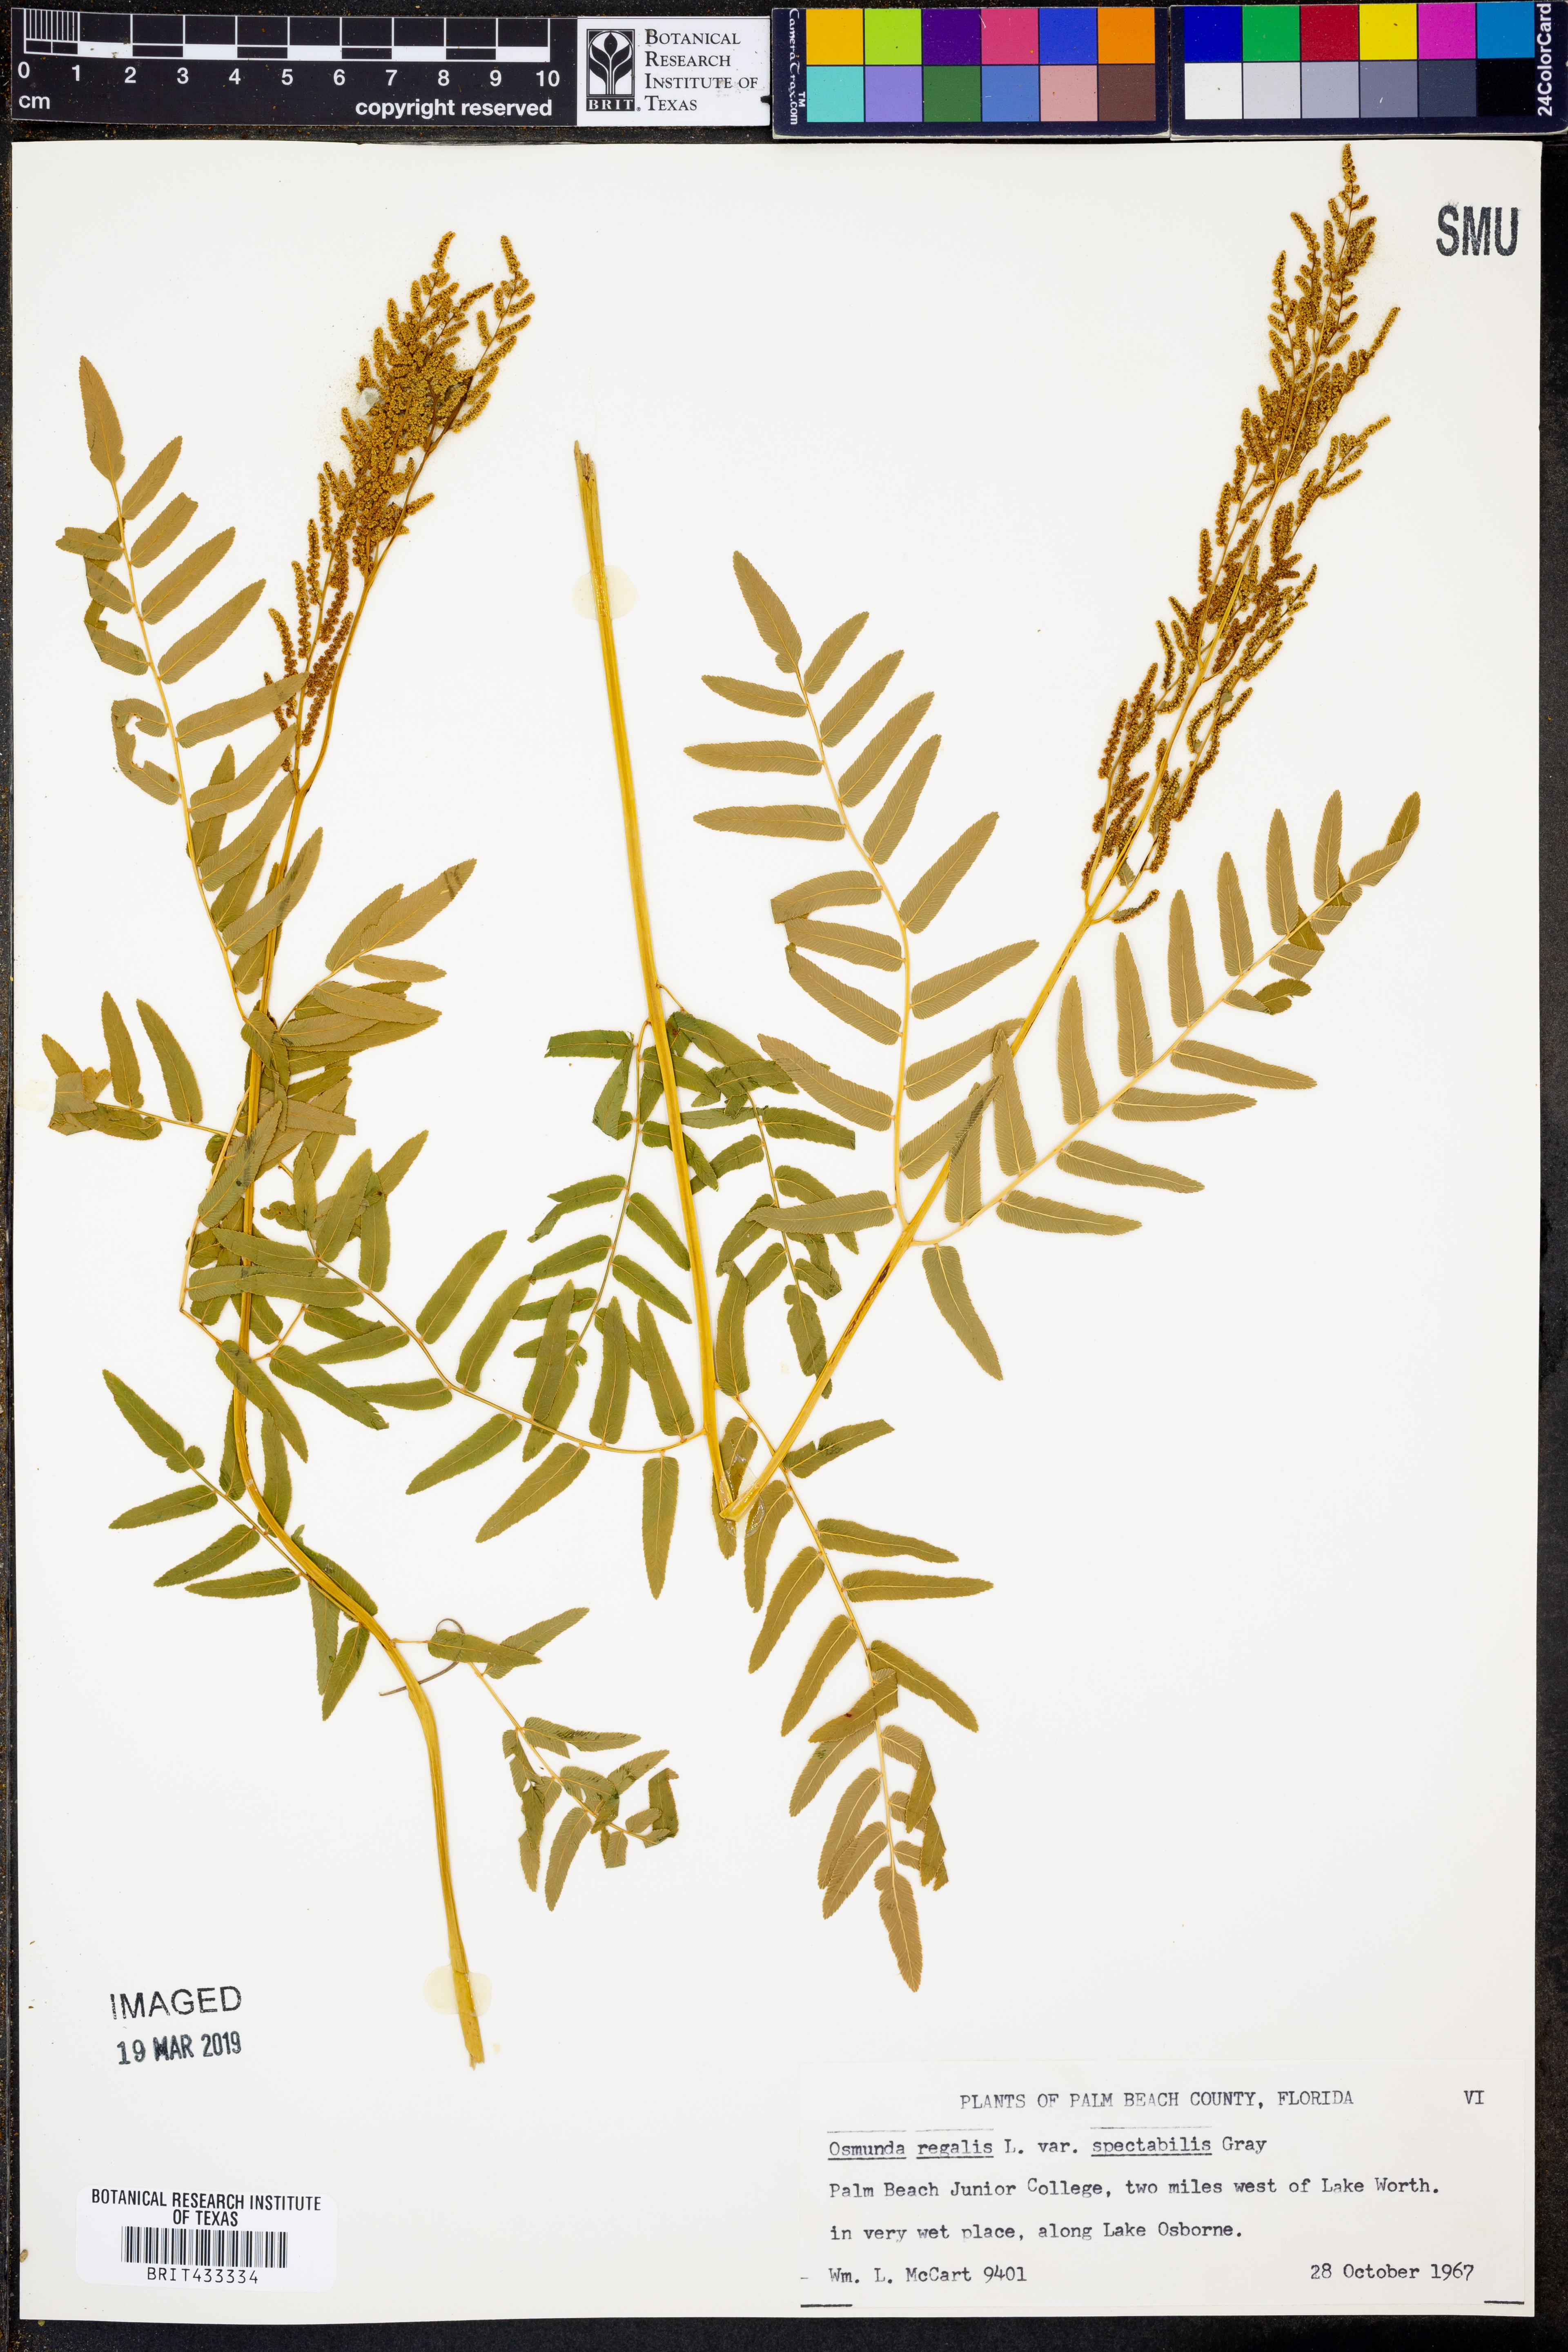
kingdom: Plantae
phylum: Tracheophyta
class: Polypodiopsida
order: Osmundales
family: Osmundaceae
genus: Osmunda
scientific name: Osmunda spectabilis
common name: American royal fern
